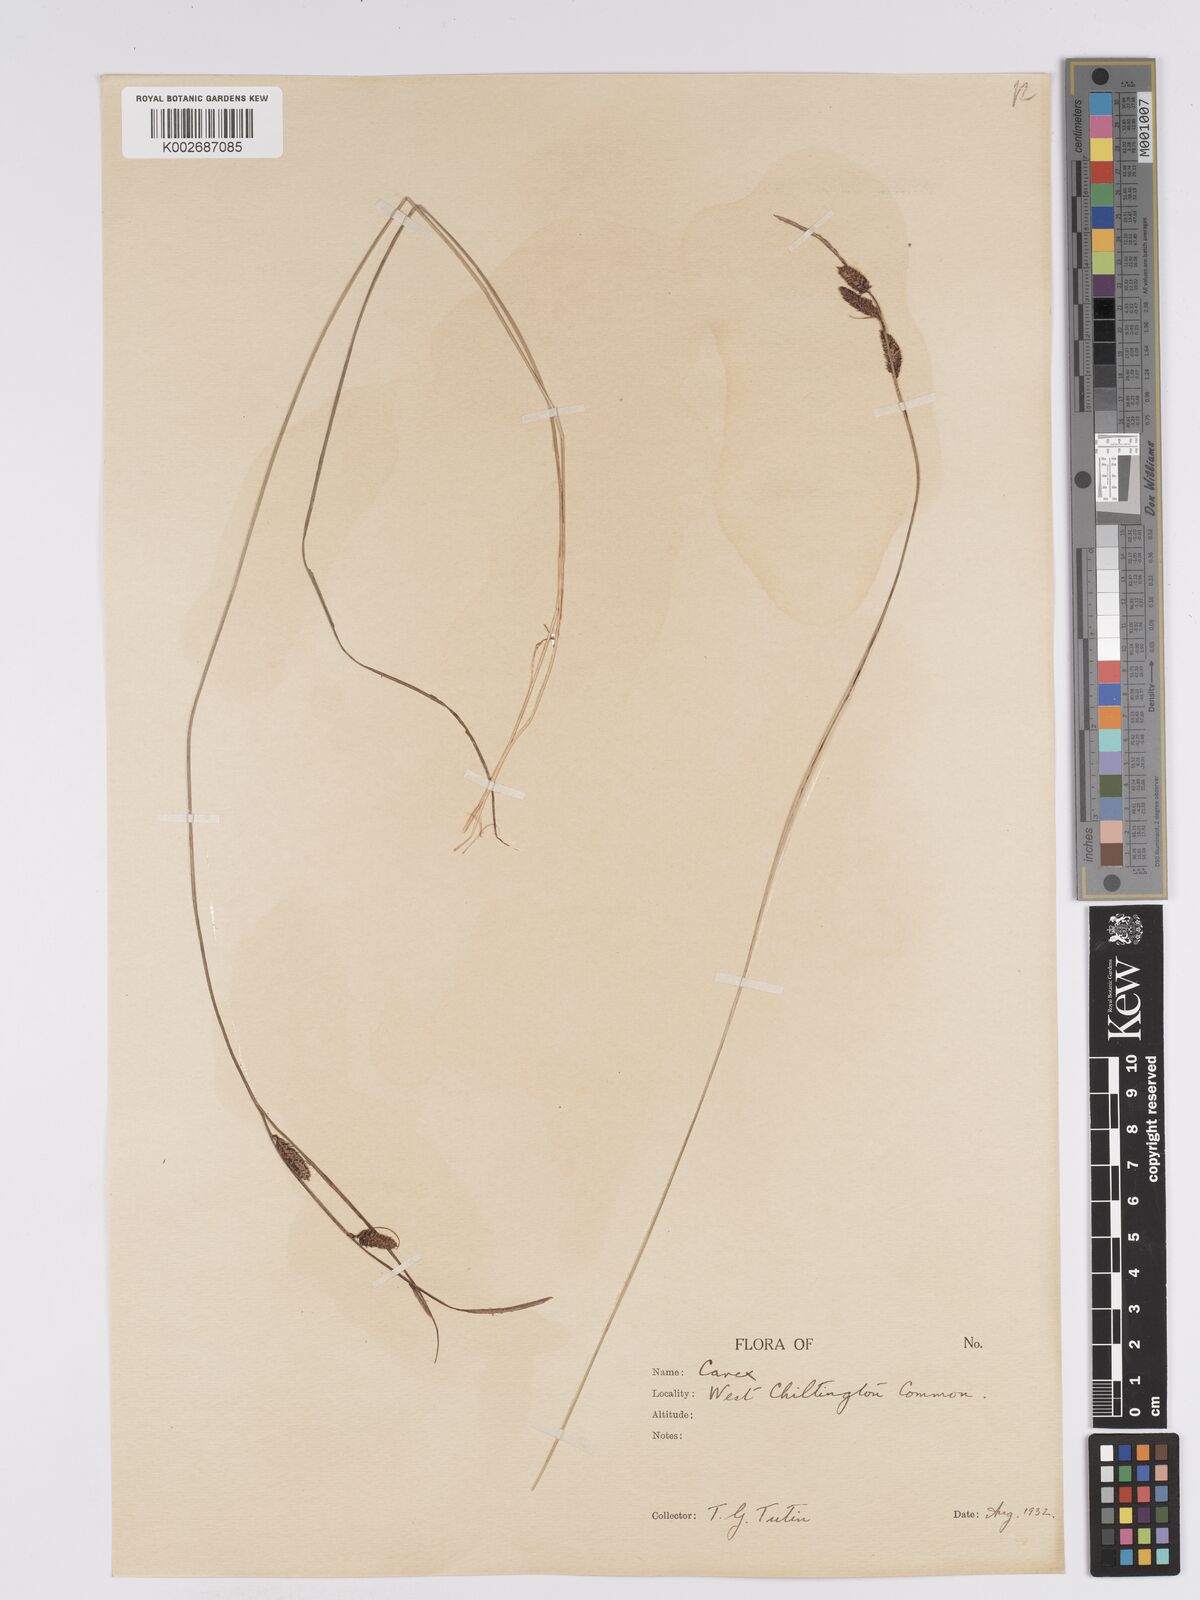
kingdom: Plantae
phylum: Tracheophyta
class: Liliopsida
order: Poales
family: Cyperaceae
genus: Carex
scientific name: Carex nigra
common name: Common sedge
